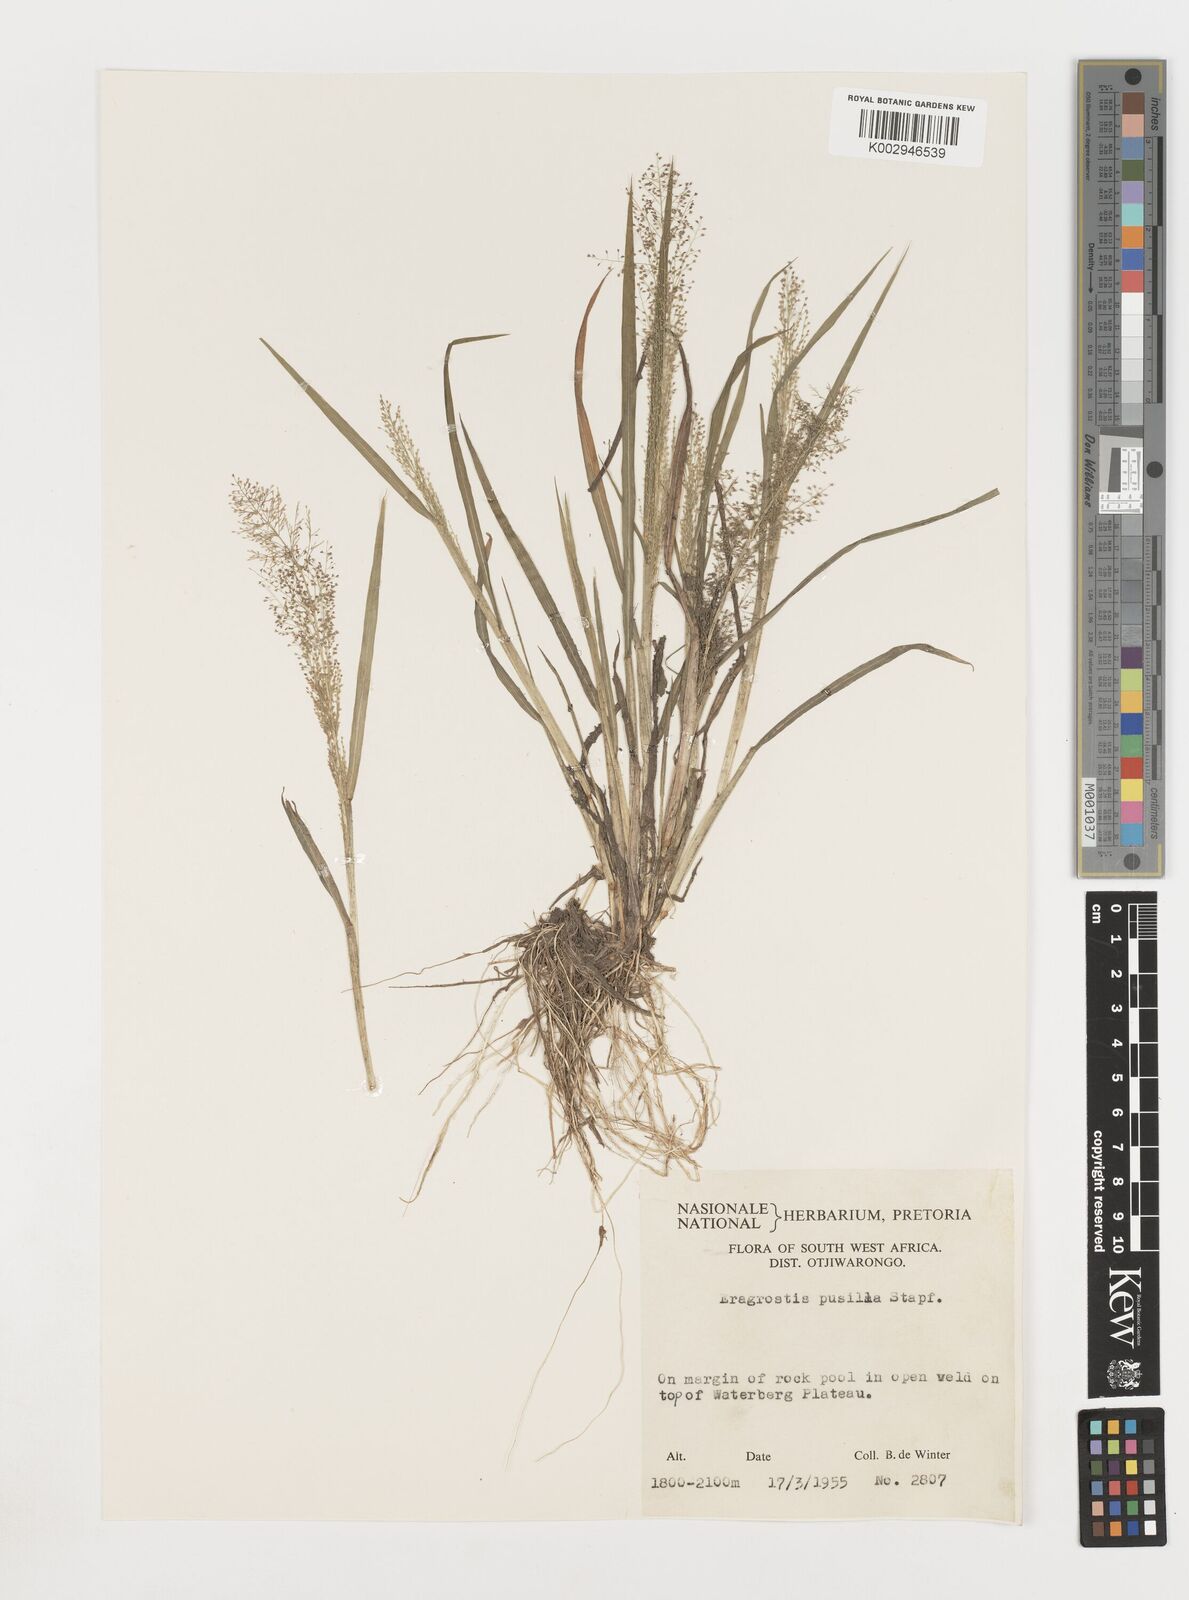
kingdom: Plantae
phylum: Tracheophyta
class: Liliopsida
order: Poales
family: Poaceae
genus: Eragrostis
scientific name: Eragrostis pusilla
